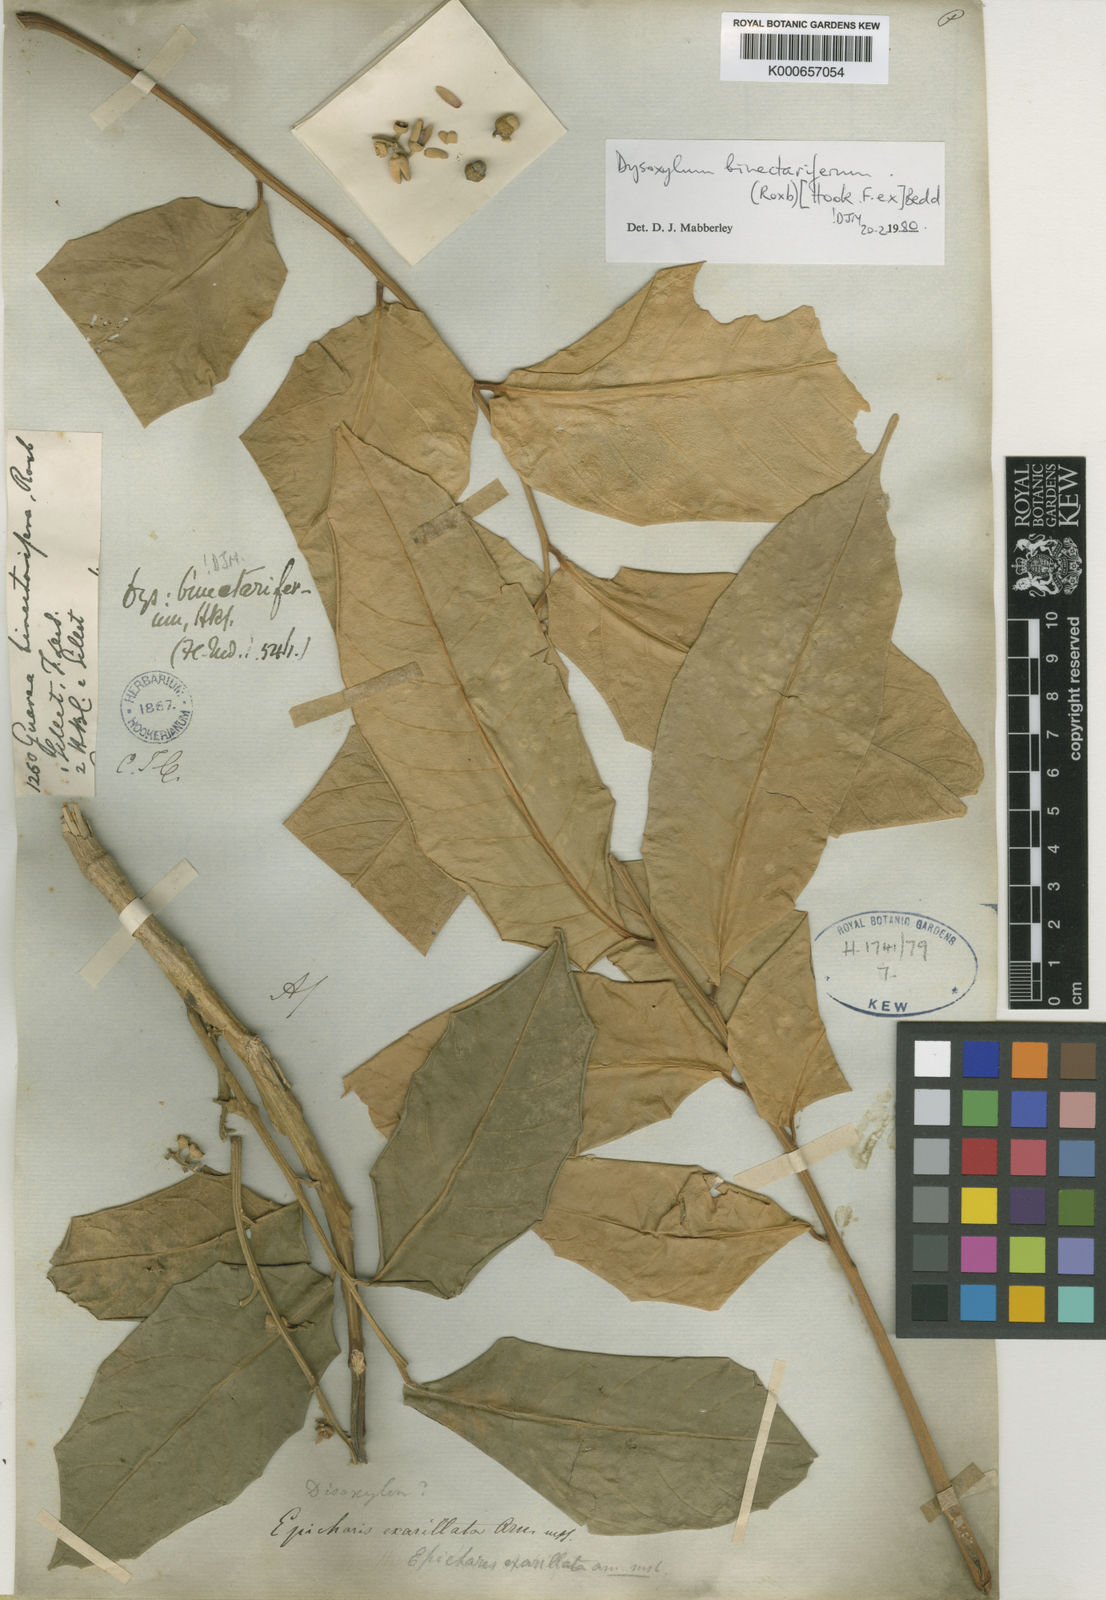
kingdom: Plantae
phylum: Tracheophyta
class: Magnoliopsida
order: Sapindales
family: Meliaceae
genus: Dysoxylum
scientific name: Dysoxylum ficiforme
